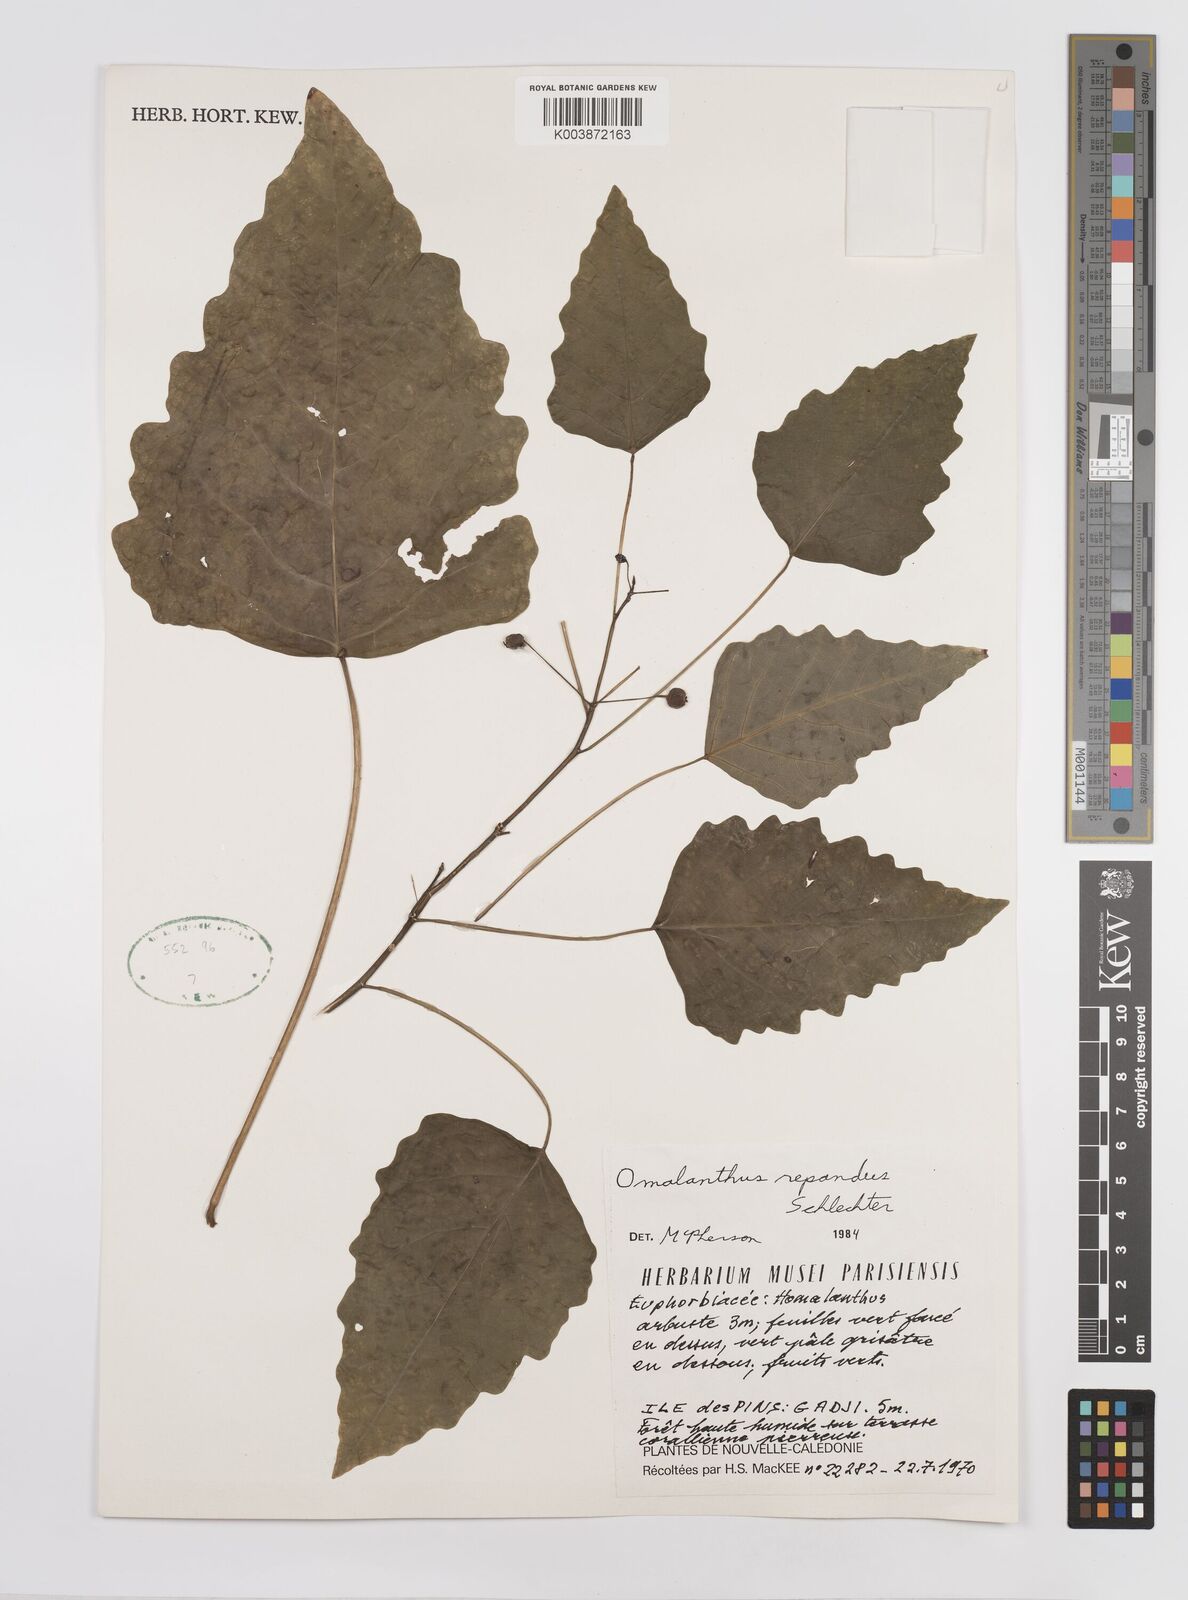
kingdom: Plantae
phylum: Tracheophyta
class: Magnoliopsida
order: Malpighiales
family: Euphorbiaceae
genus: Homalanthus
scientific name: Homalanthus repandus
